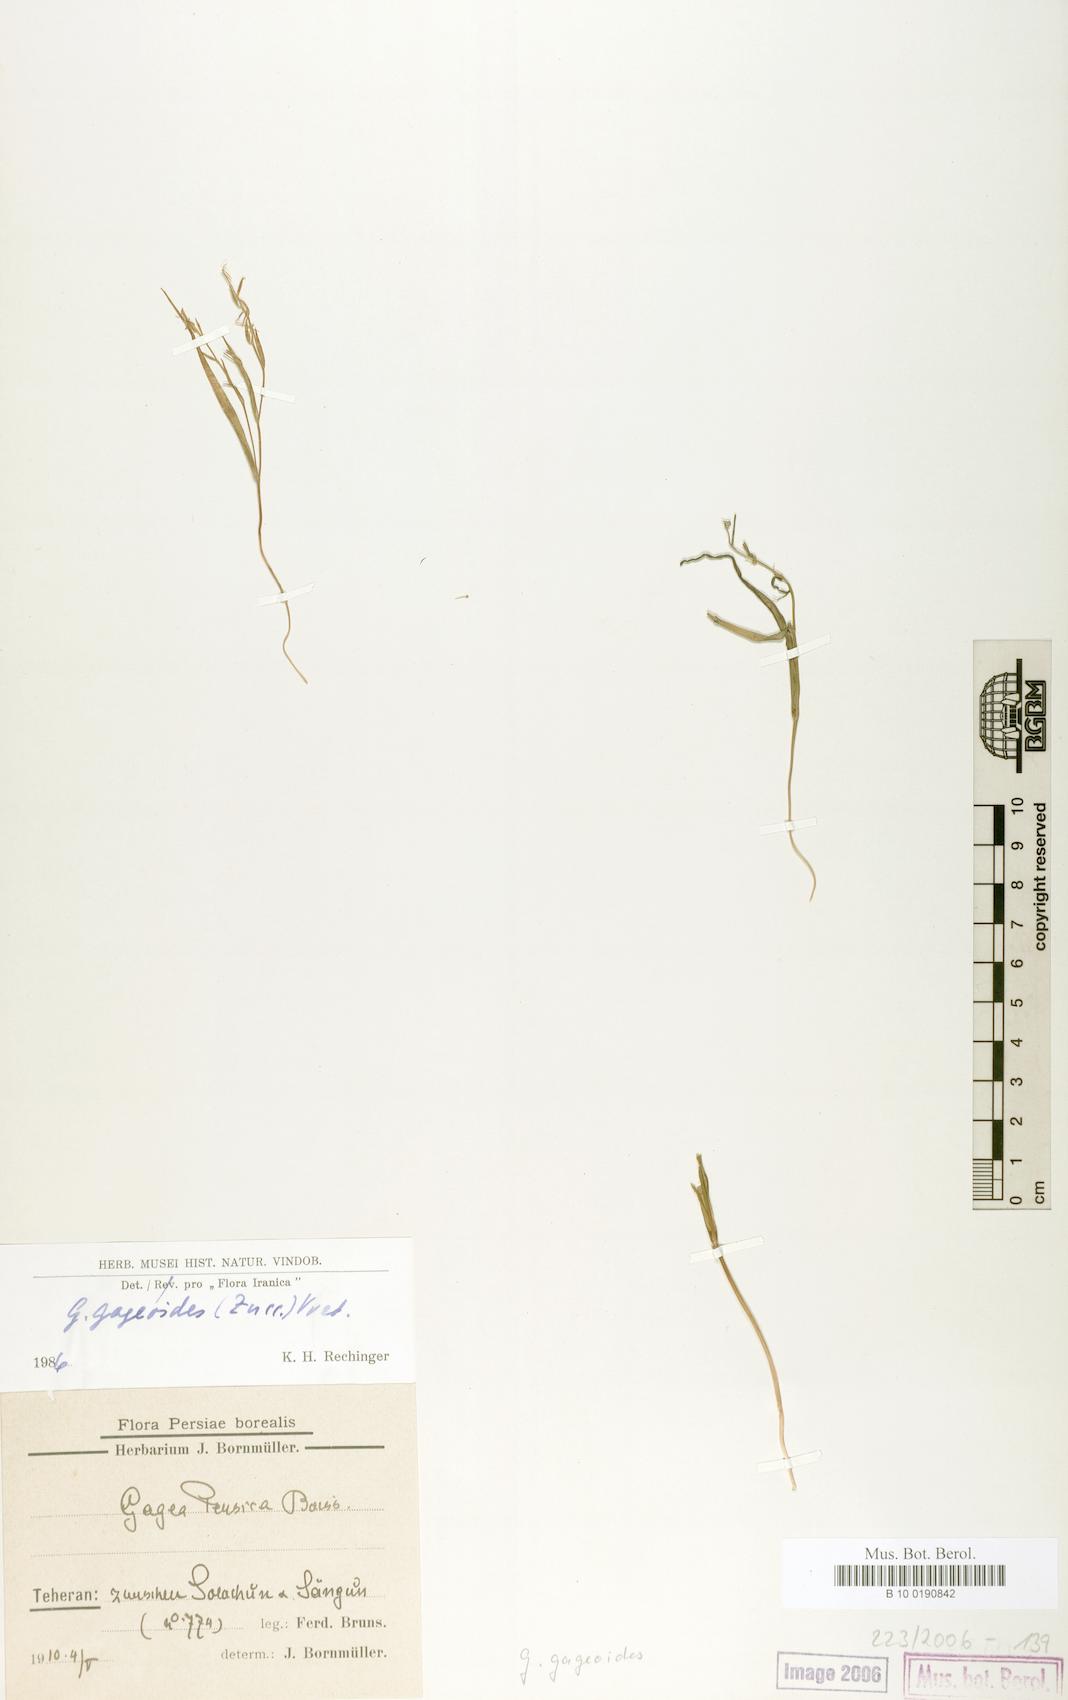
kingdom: Plantae
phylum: Tracheophyta
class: Liliopsida
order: Liliales
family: Liliaceae
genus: Gagea
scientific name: Gagea gageoides
